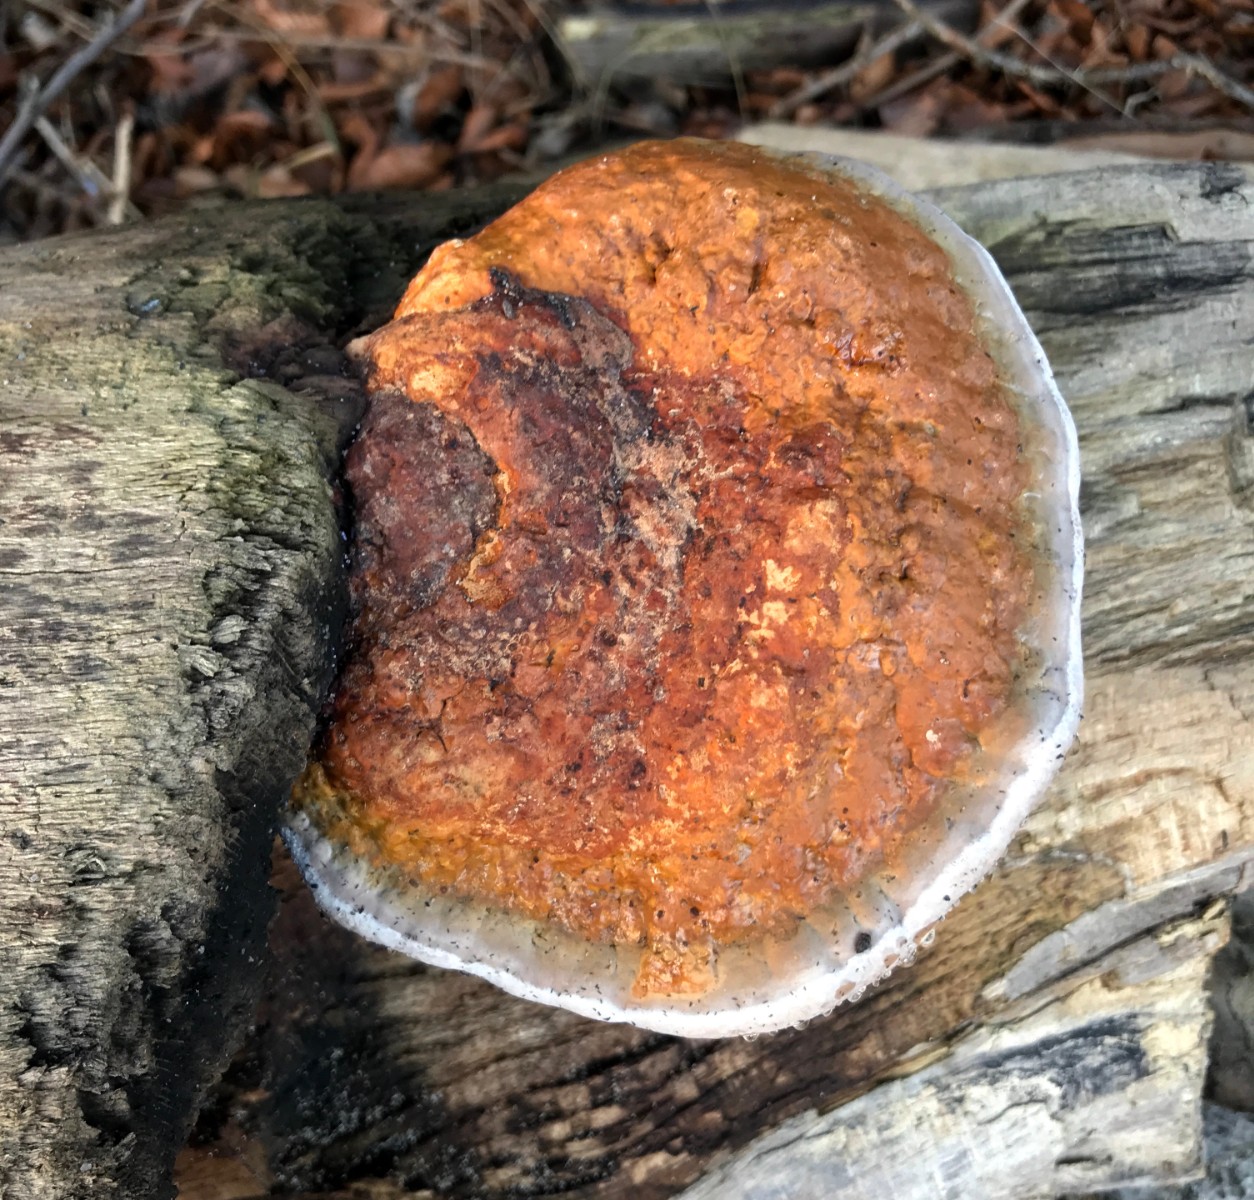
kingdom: Fungi
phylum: Basidiomycota
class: Agaricomycetes
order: Polyporales
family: Fomitopsidaceae
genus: Fomitopsis
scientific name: Fomitopsis pinicola
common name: randbæltet hovporesvamp
